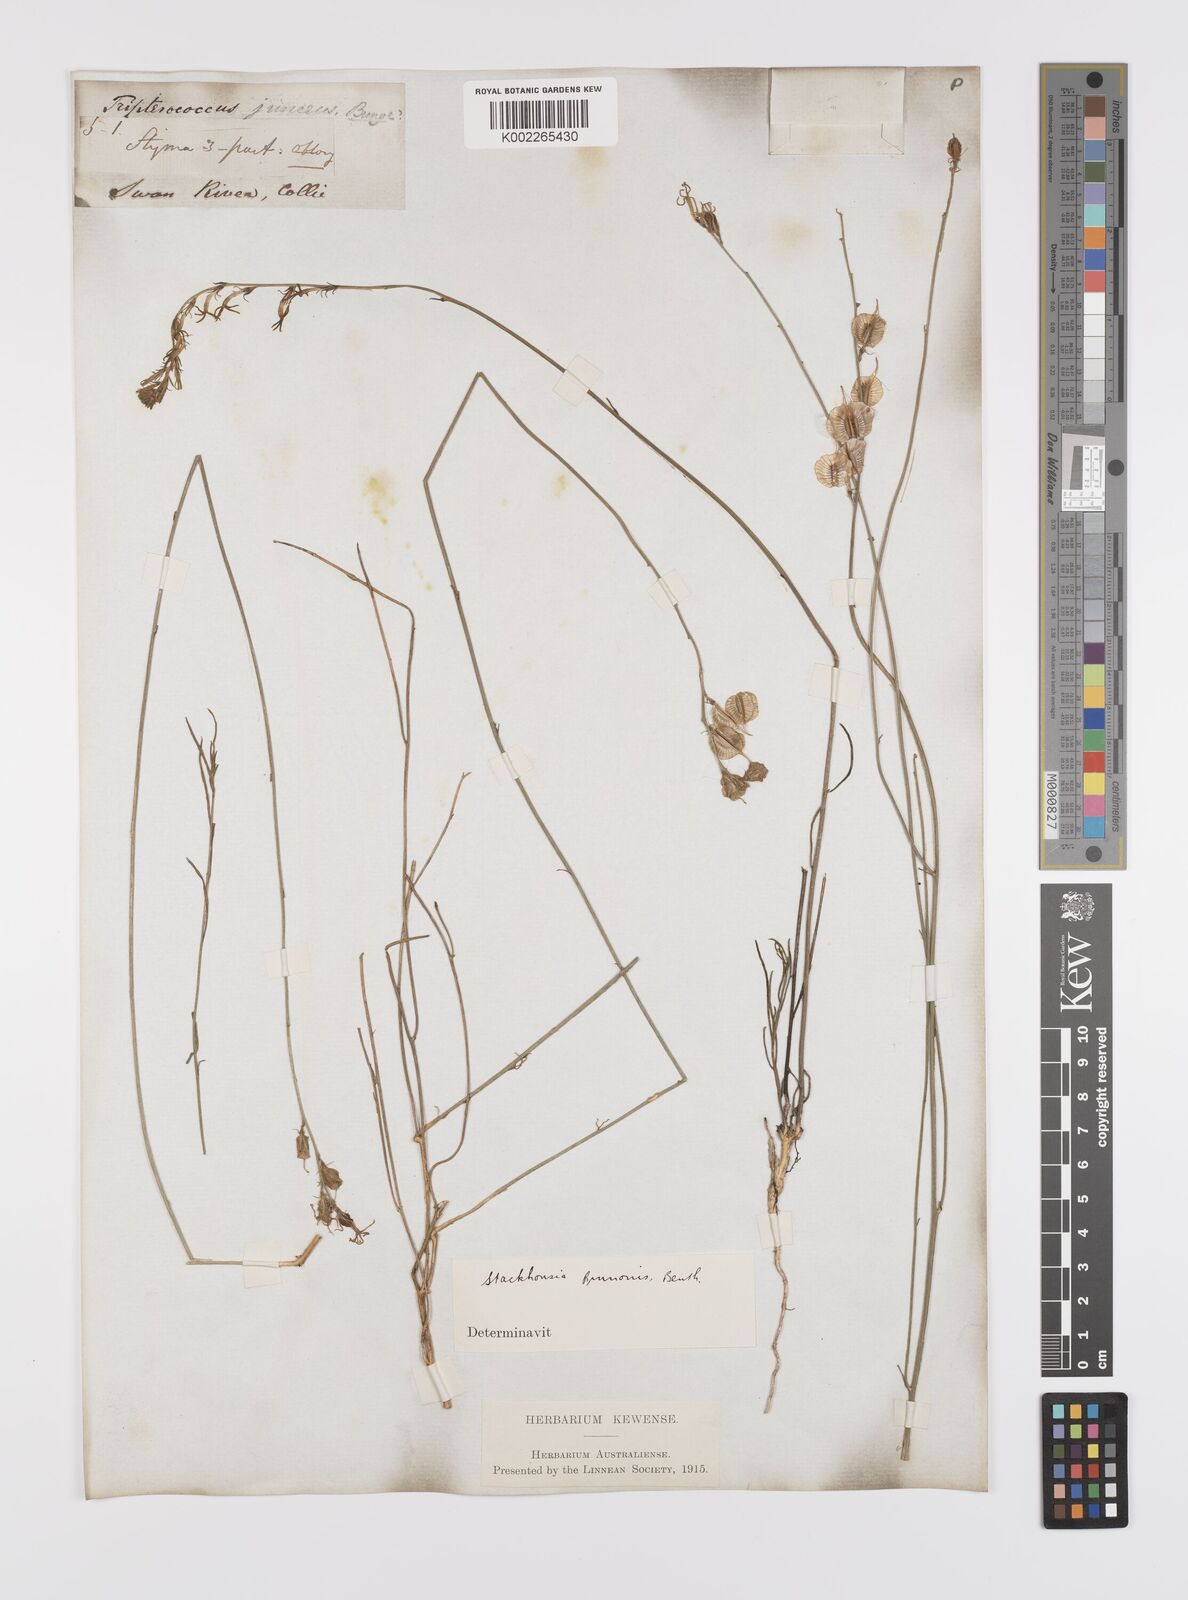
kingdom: Plantae
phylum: Tracheophyta
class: Magnoliopsida
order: Celastrales
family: Celastraceae
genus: Tripterococcus
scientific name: Tripterococcus brunonis
